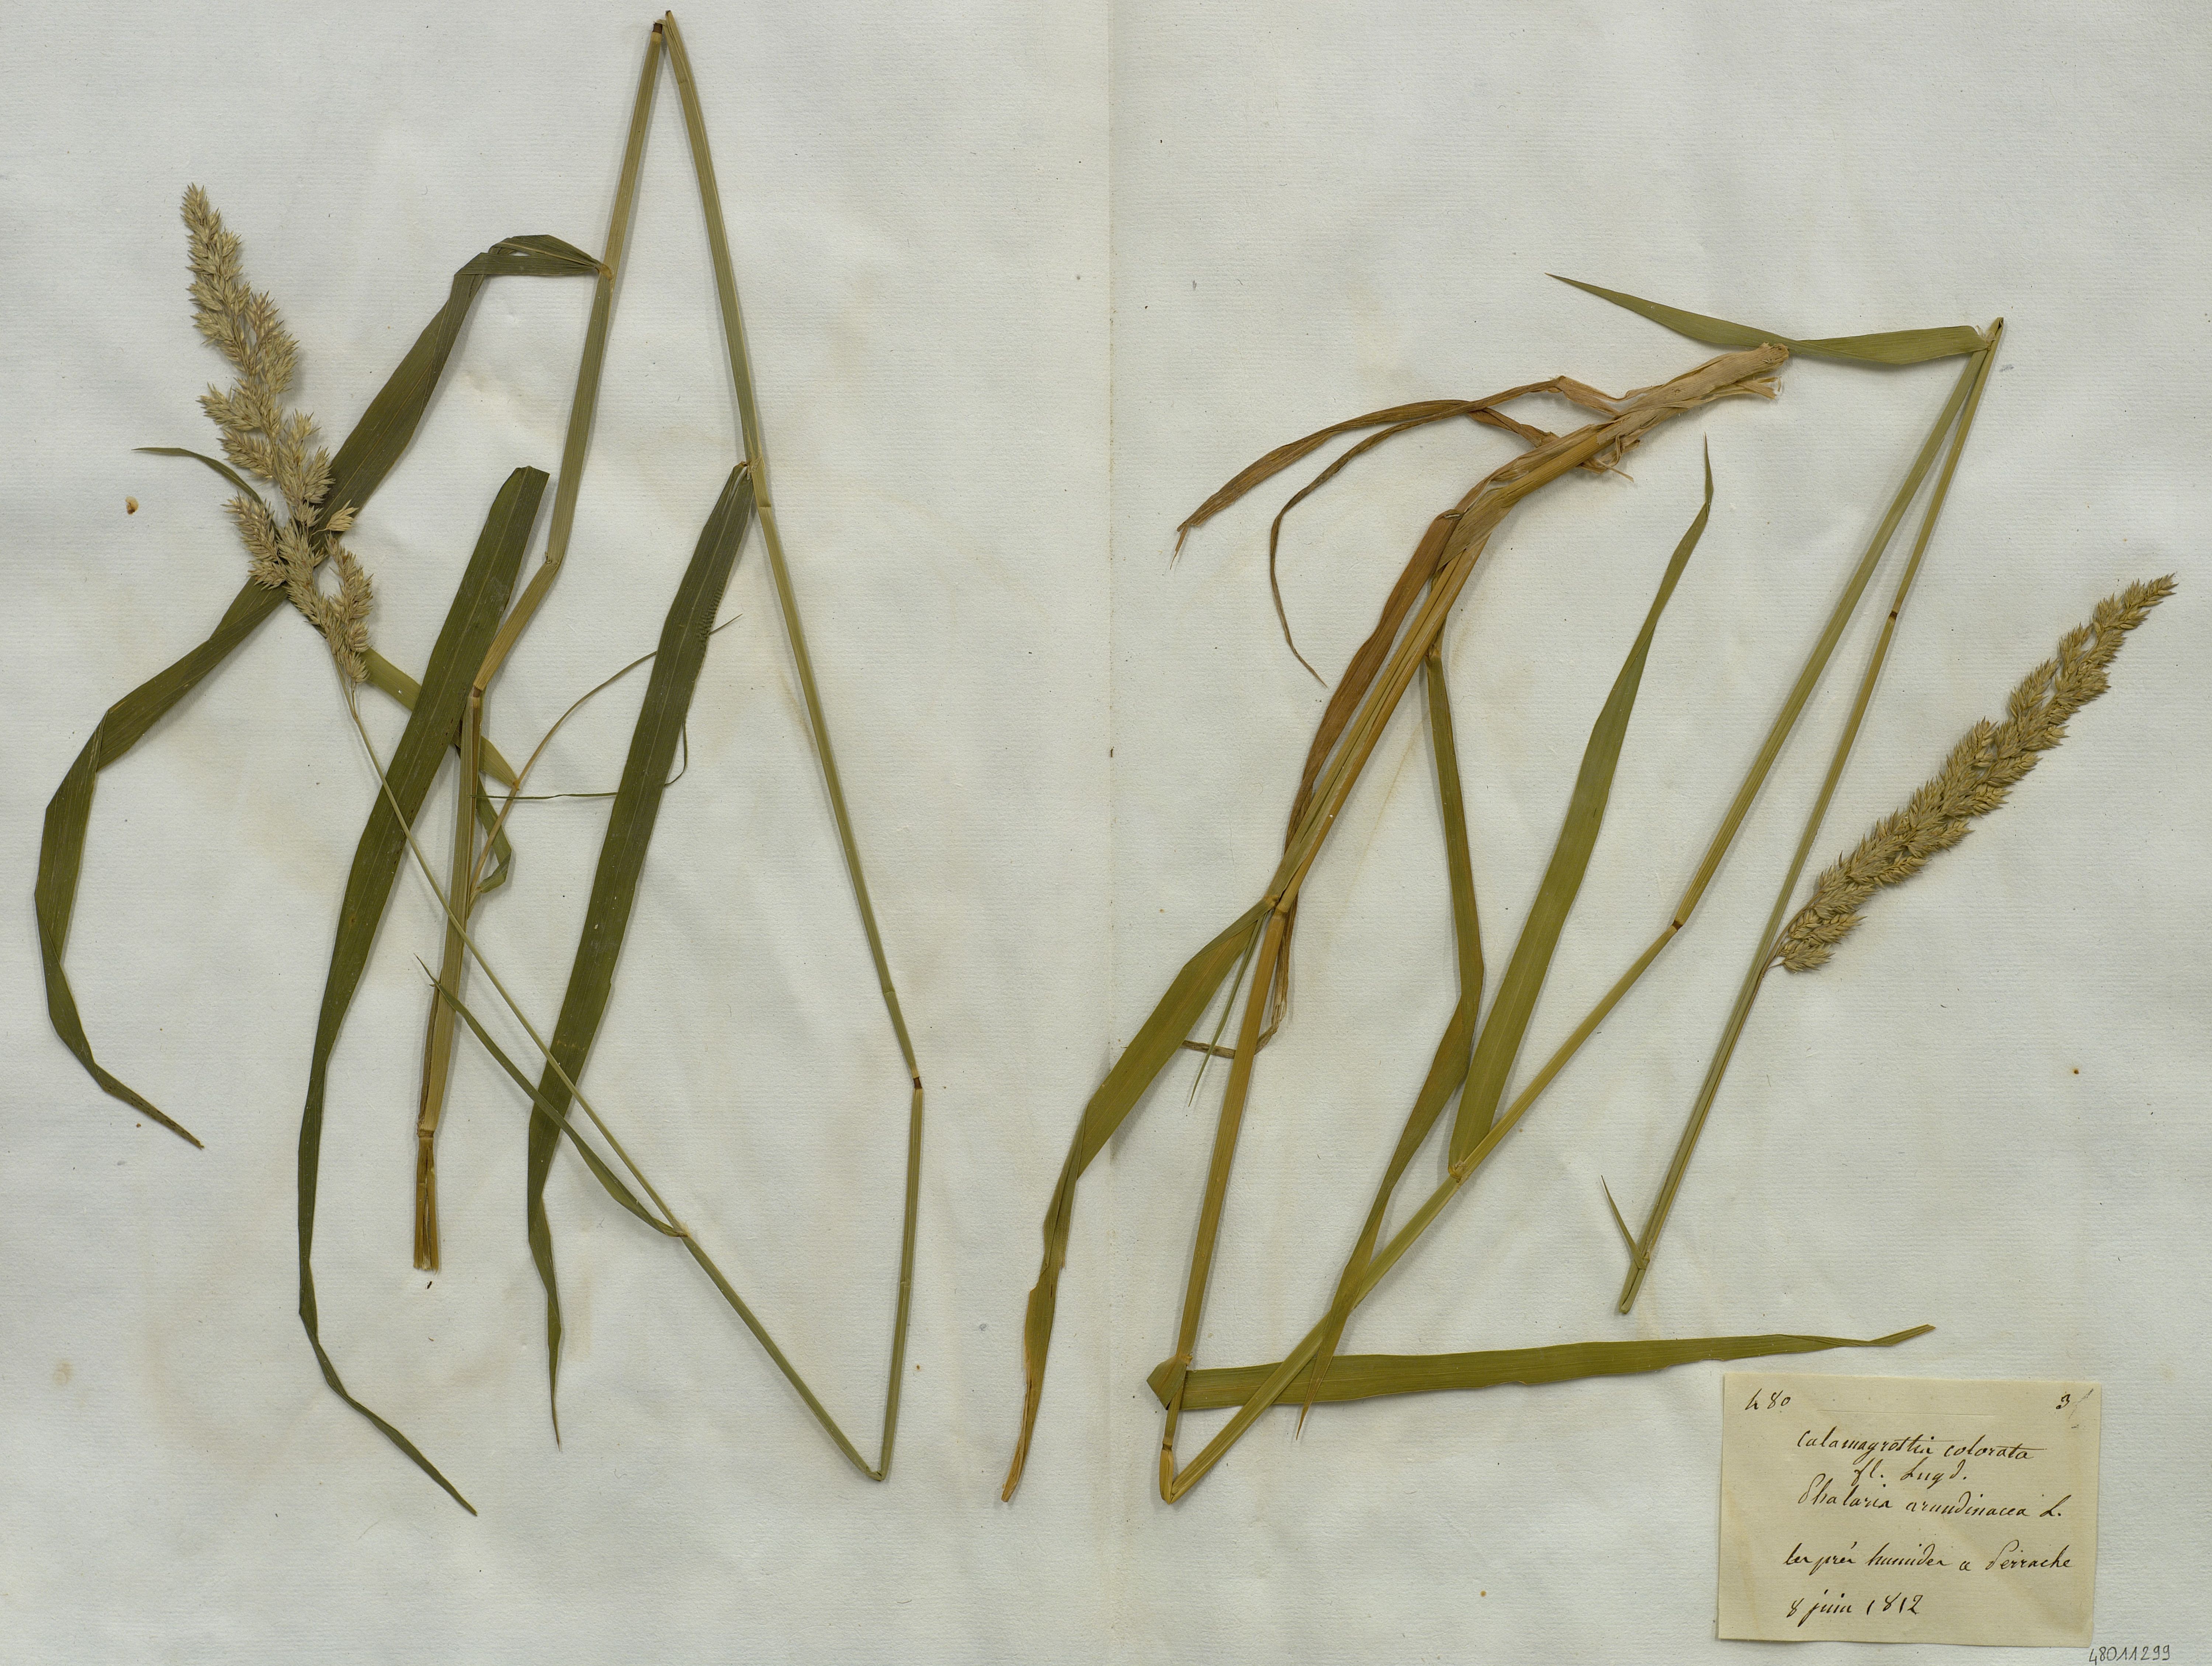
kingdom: Plantae
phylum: Tracheophyta
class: Liliopsida
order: Poales
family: Poaceae
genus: Calamagrostis
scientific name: Calamagrostis colorata
